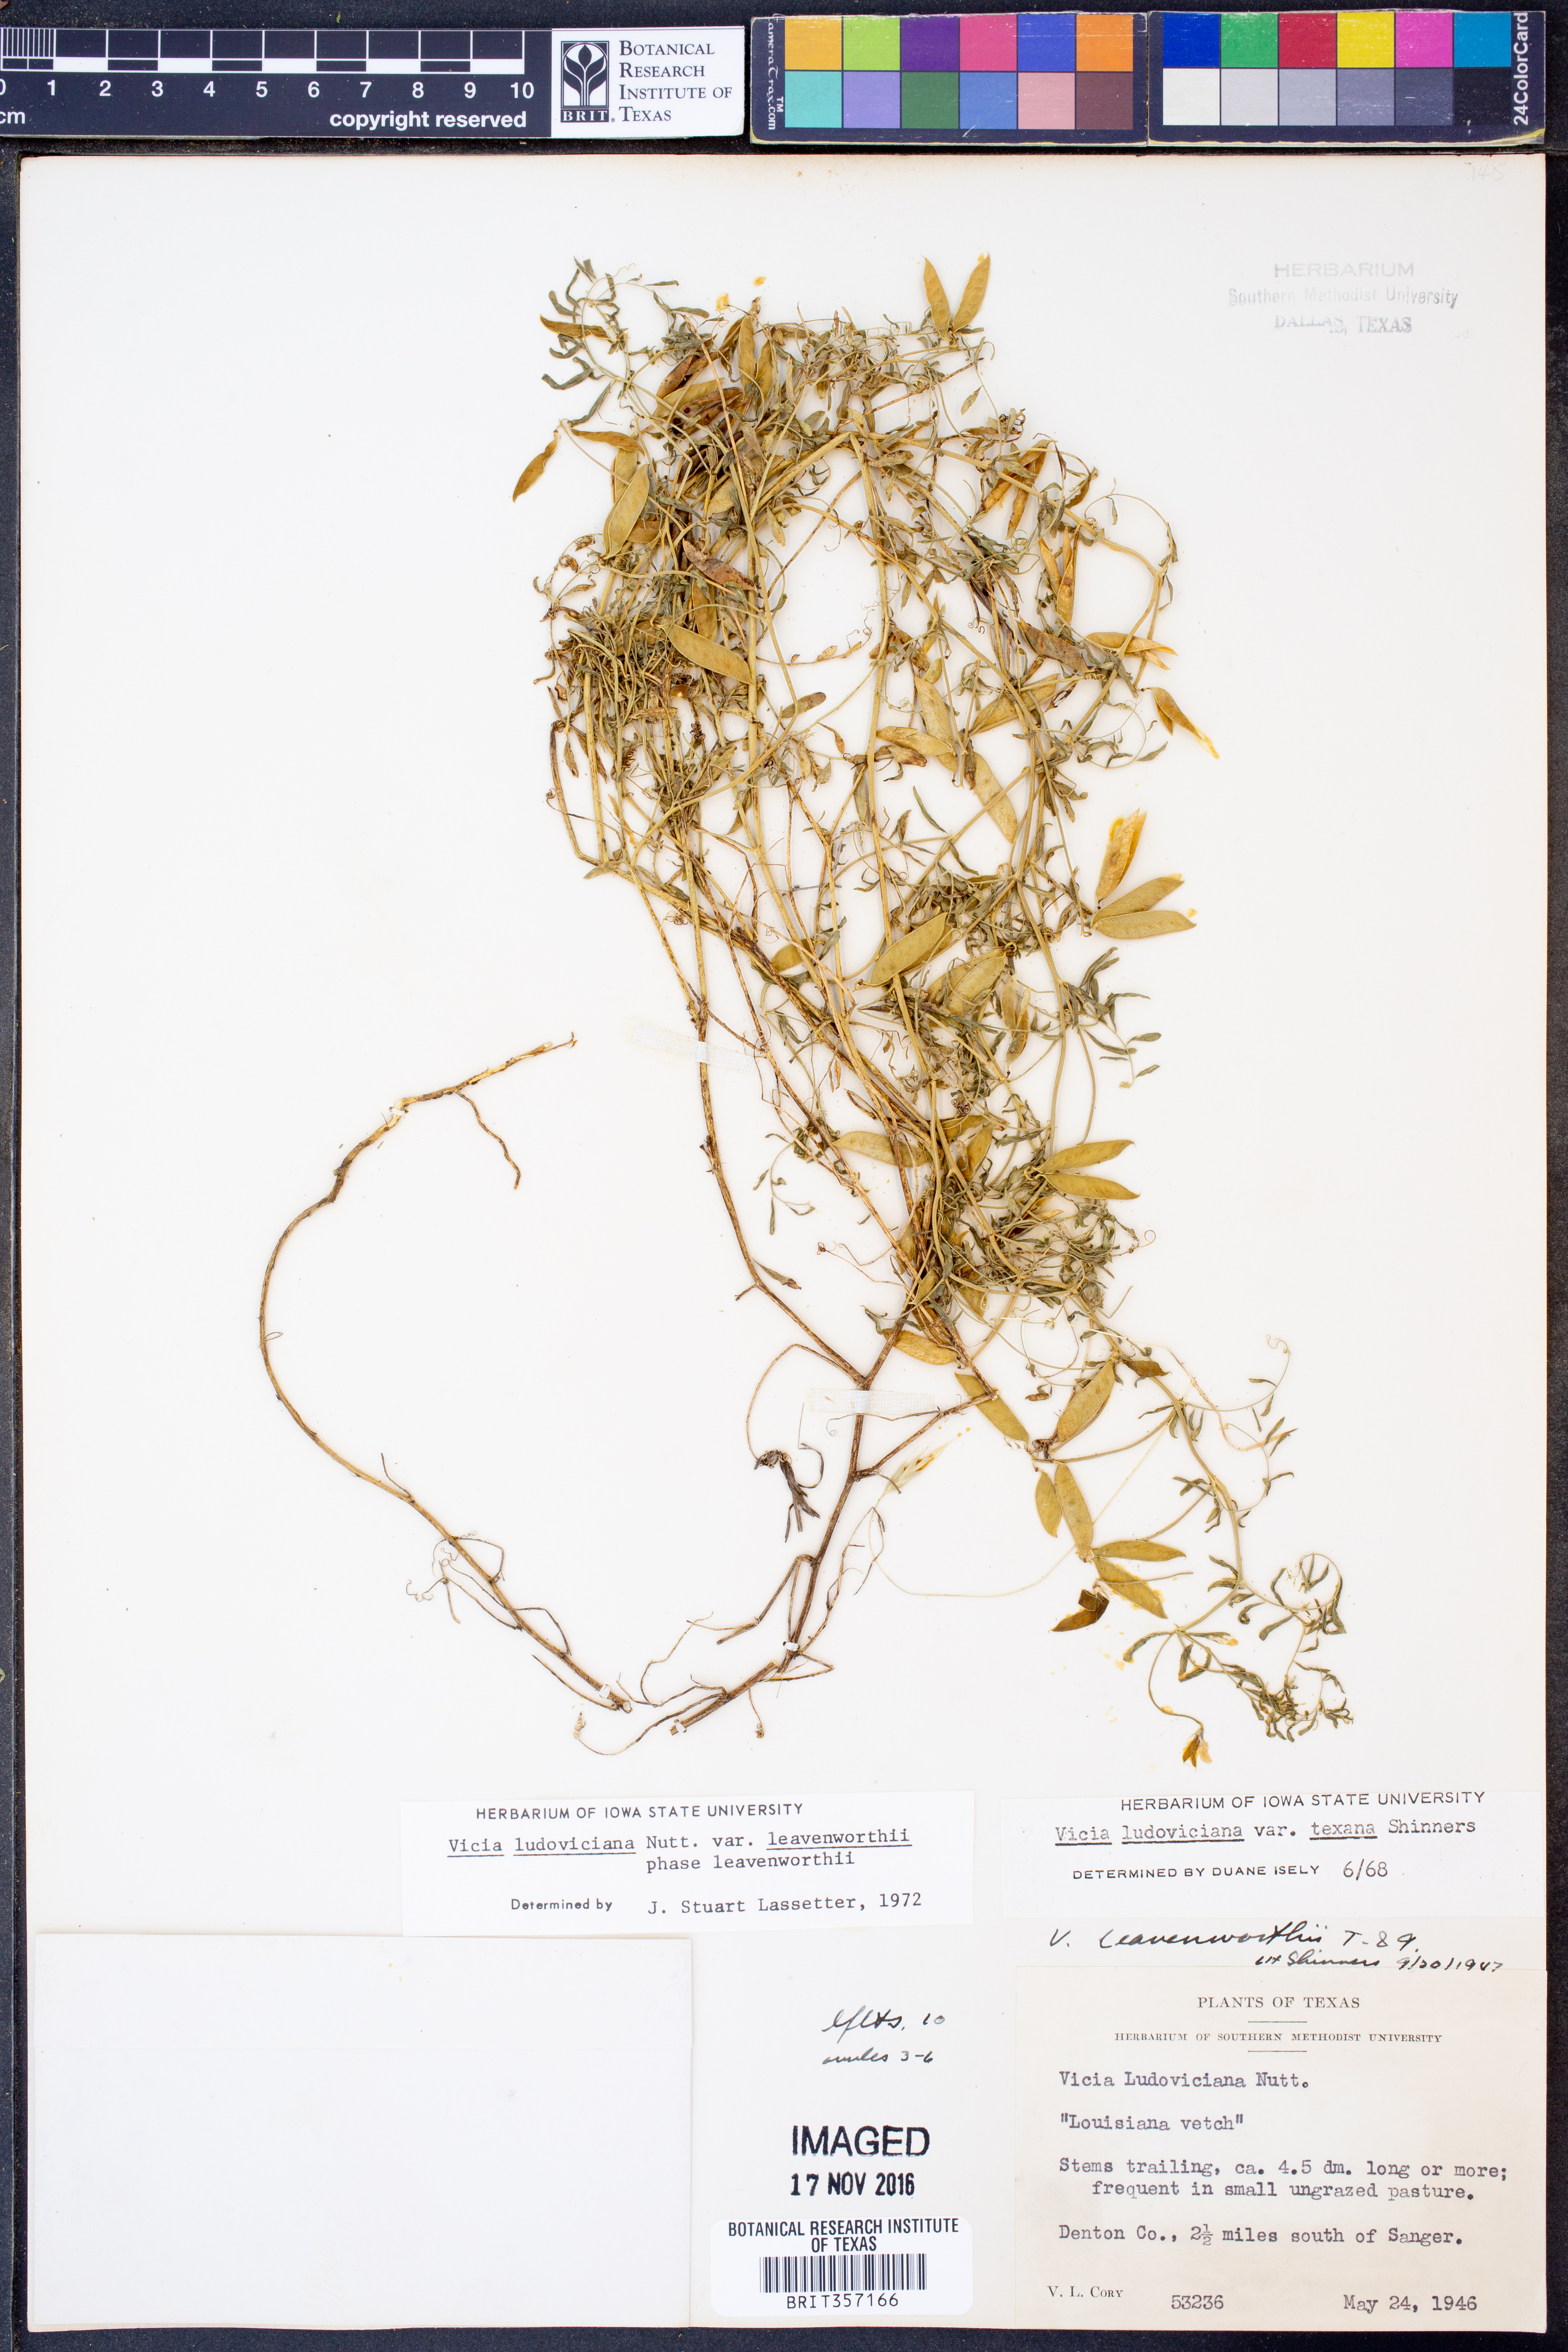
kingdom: Plantae
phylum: Tracheophyta
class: Magnoliopsida
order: Fabales
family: Fabaceae
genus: Vicia
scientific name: Vicia ludoviciana
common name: Louisiana vetch
